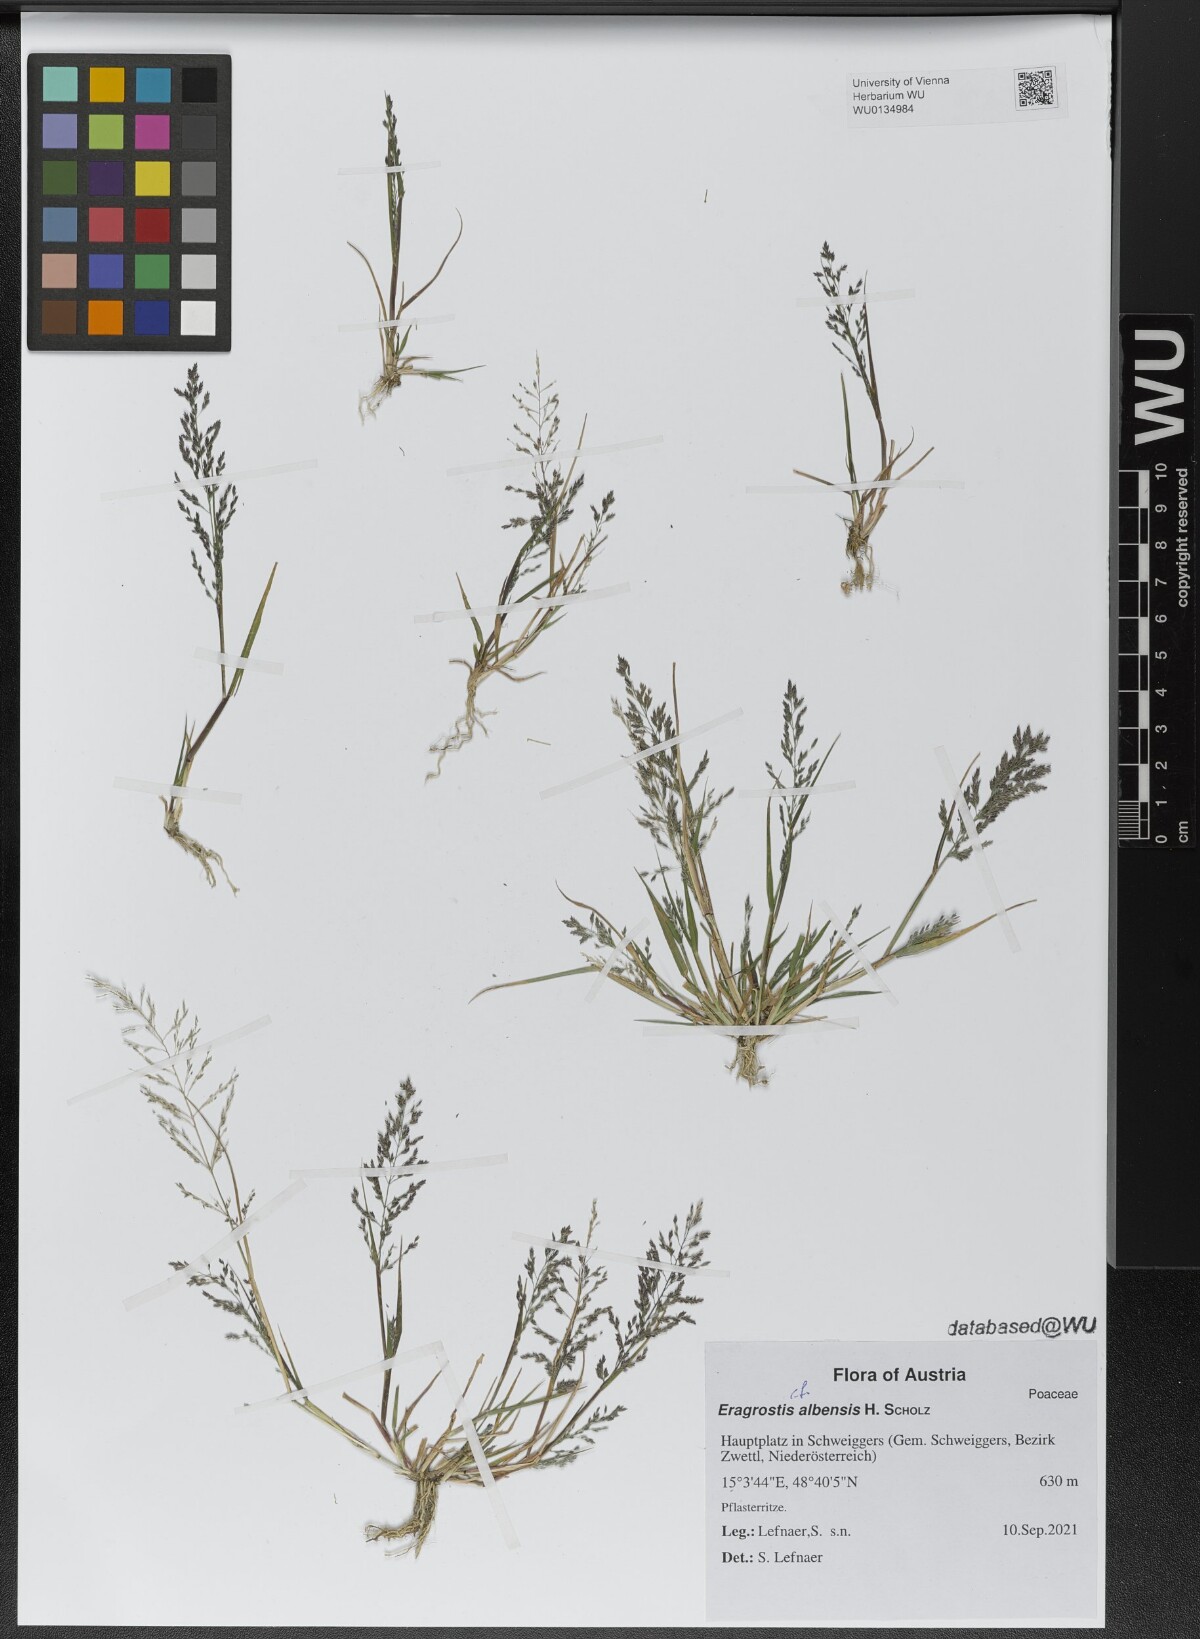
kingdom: Plantae
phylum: Tracheophyta
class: Liliopsida
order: Poales
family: Poaceae
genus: Eragrostis
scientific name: Eragrostis pilosa
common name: Indian lovegrass
